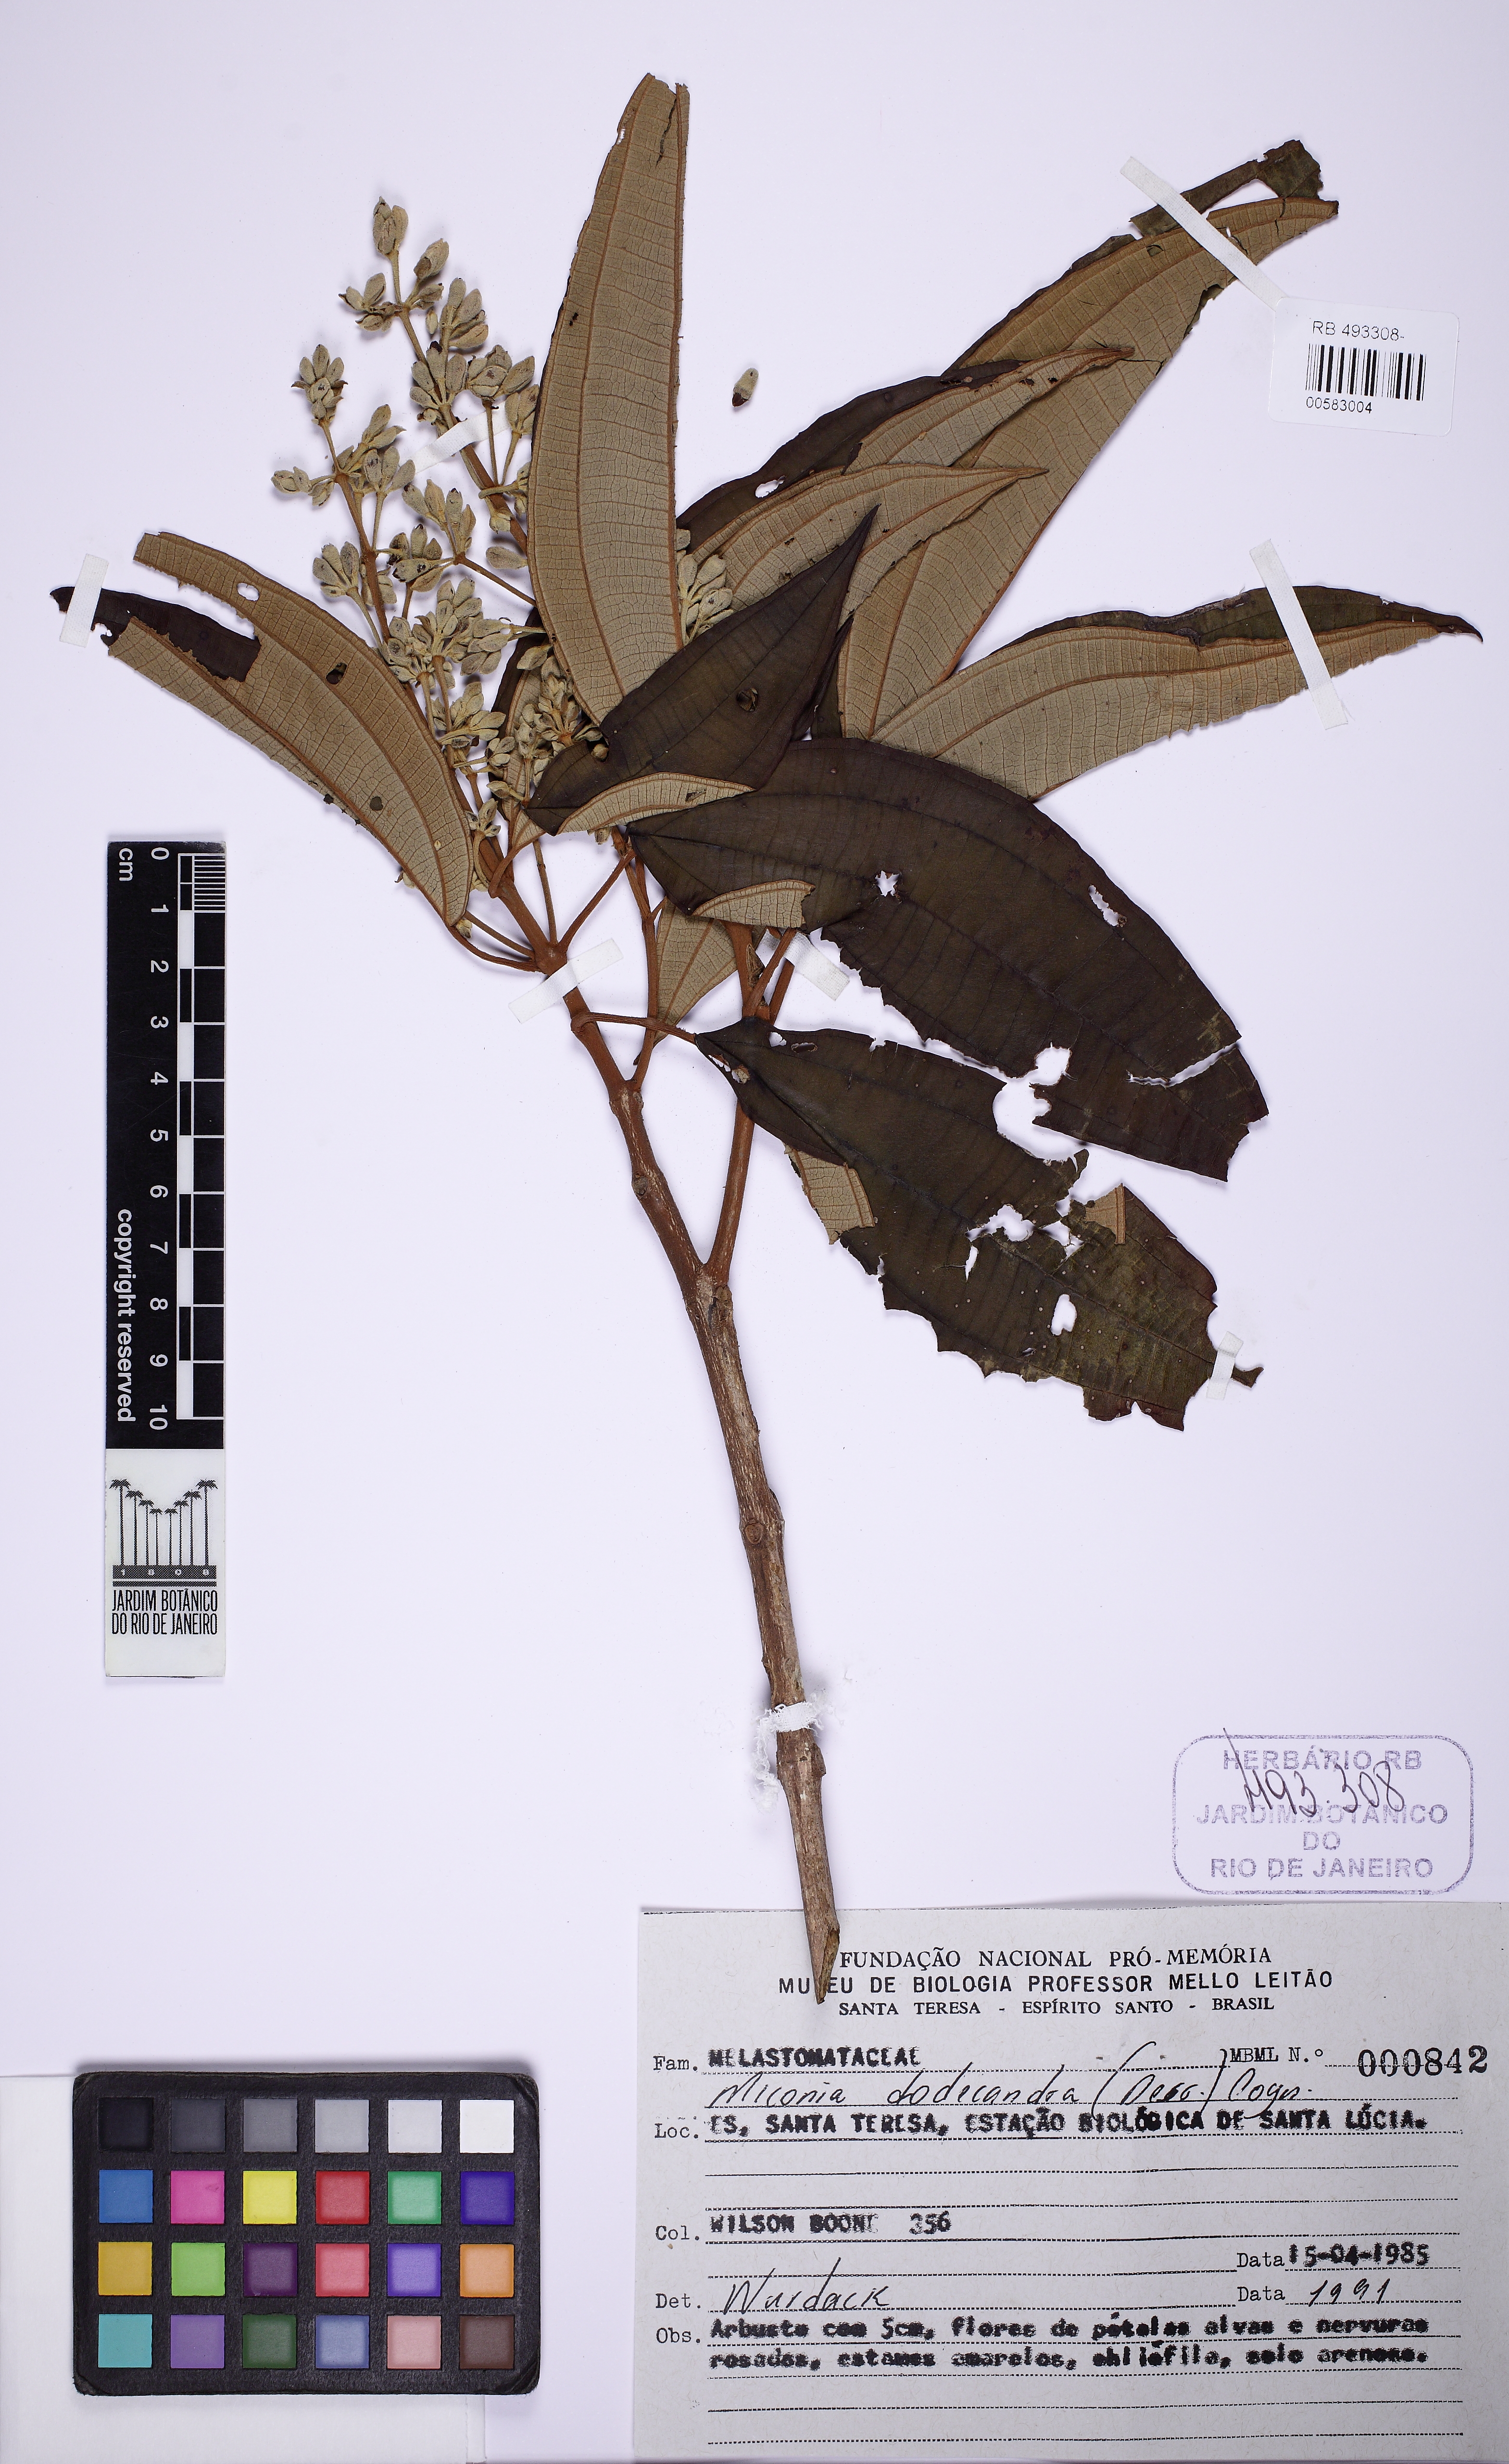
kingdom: Plantae
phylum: Tracheophyta
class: Magnoliopsida
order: Myrtales
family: Melastomataceae
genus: Miconia
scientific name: Miconia dodecandra
